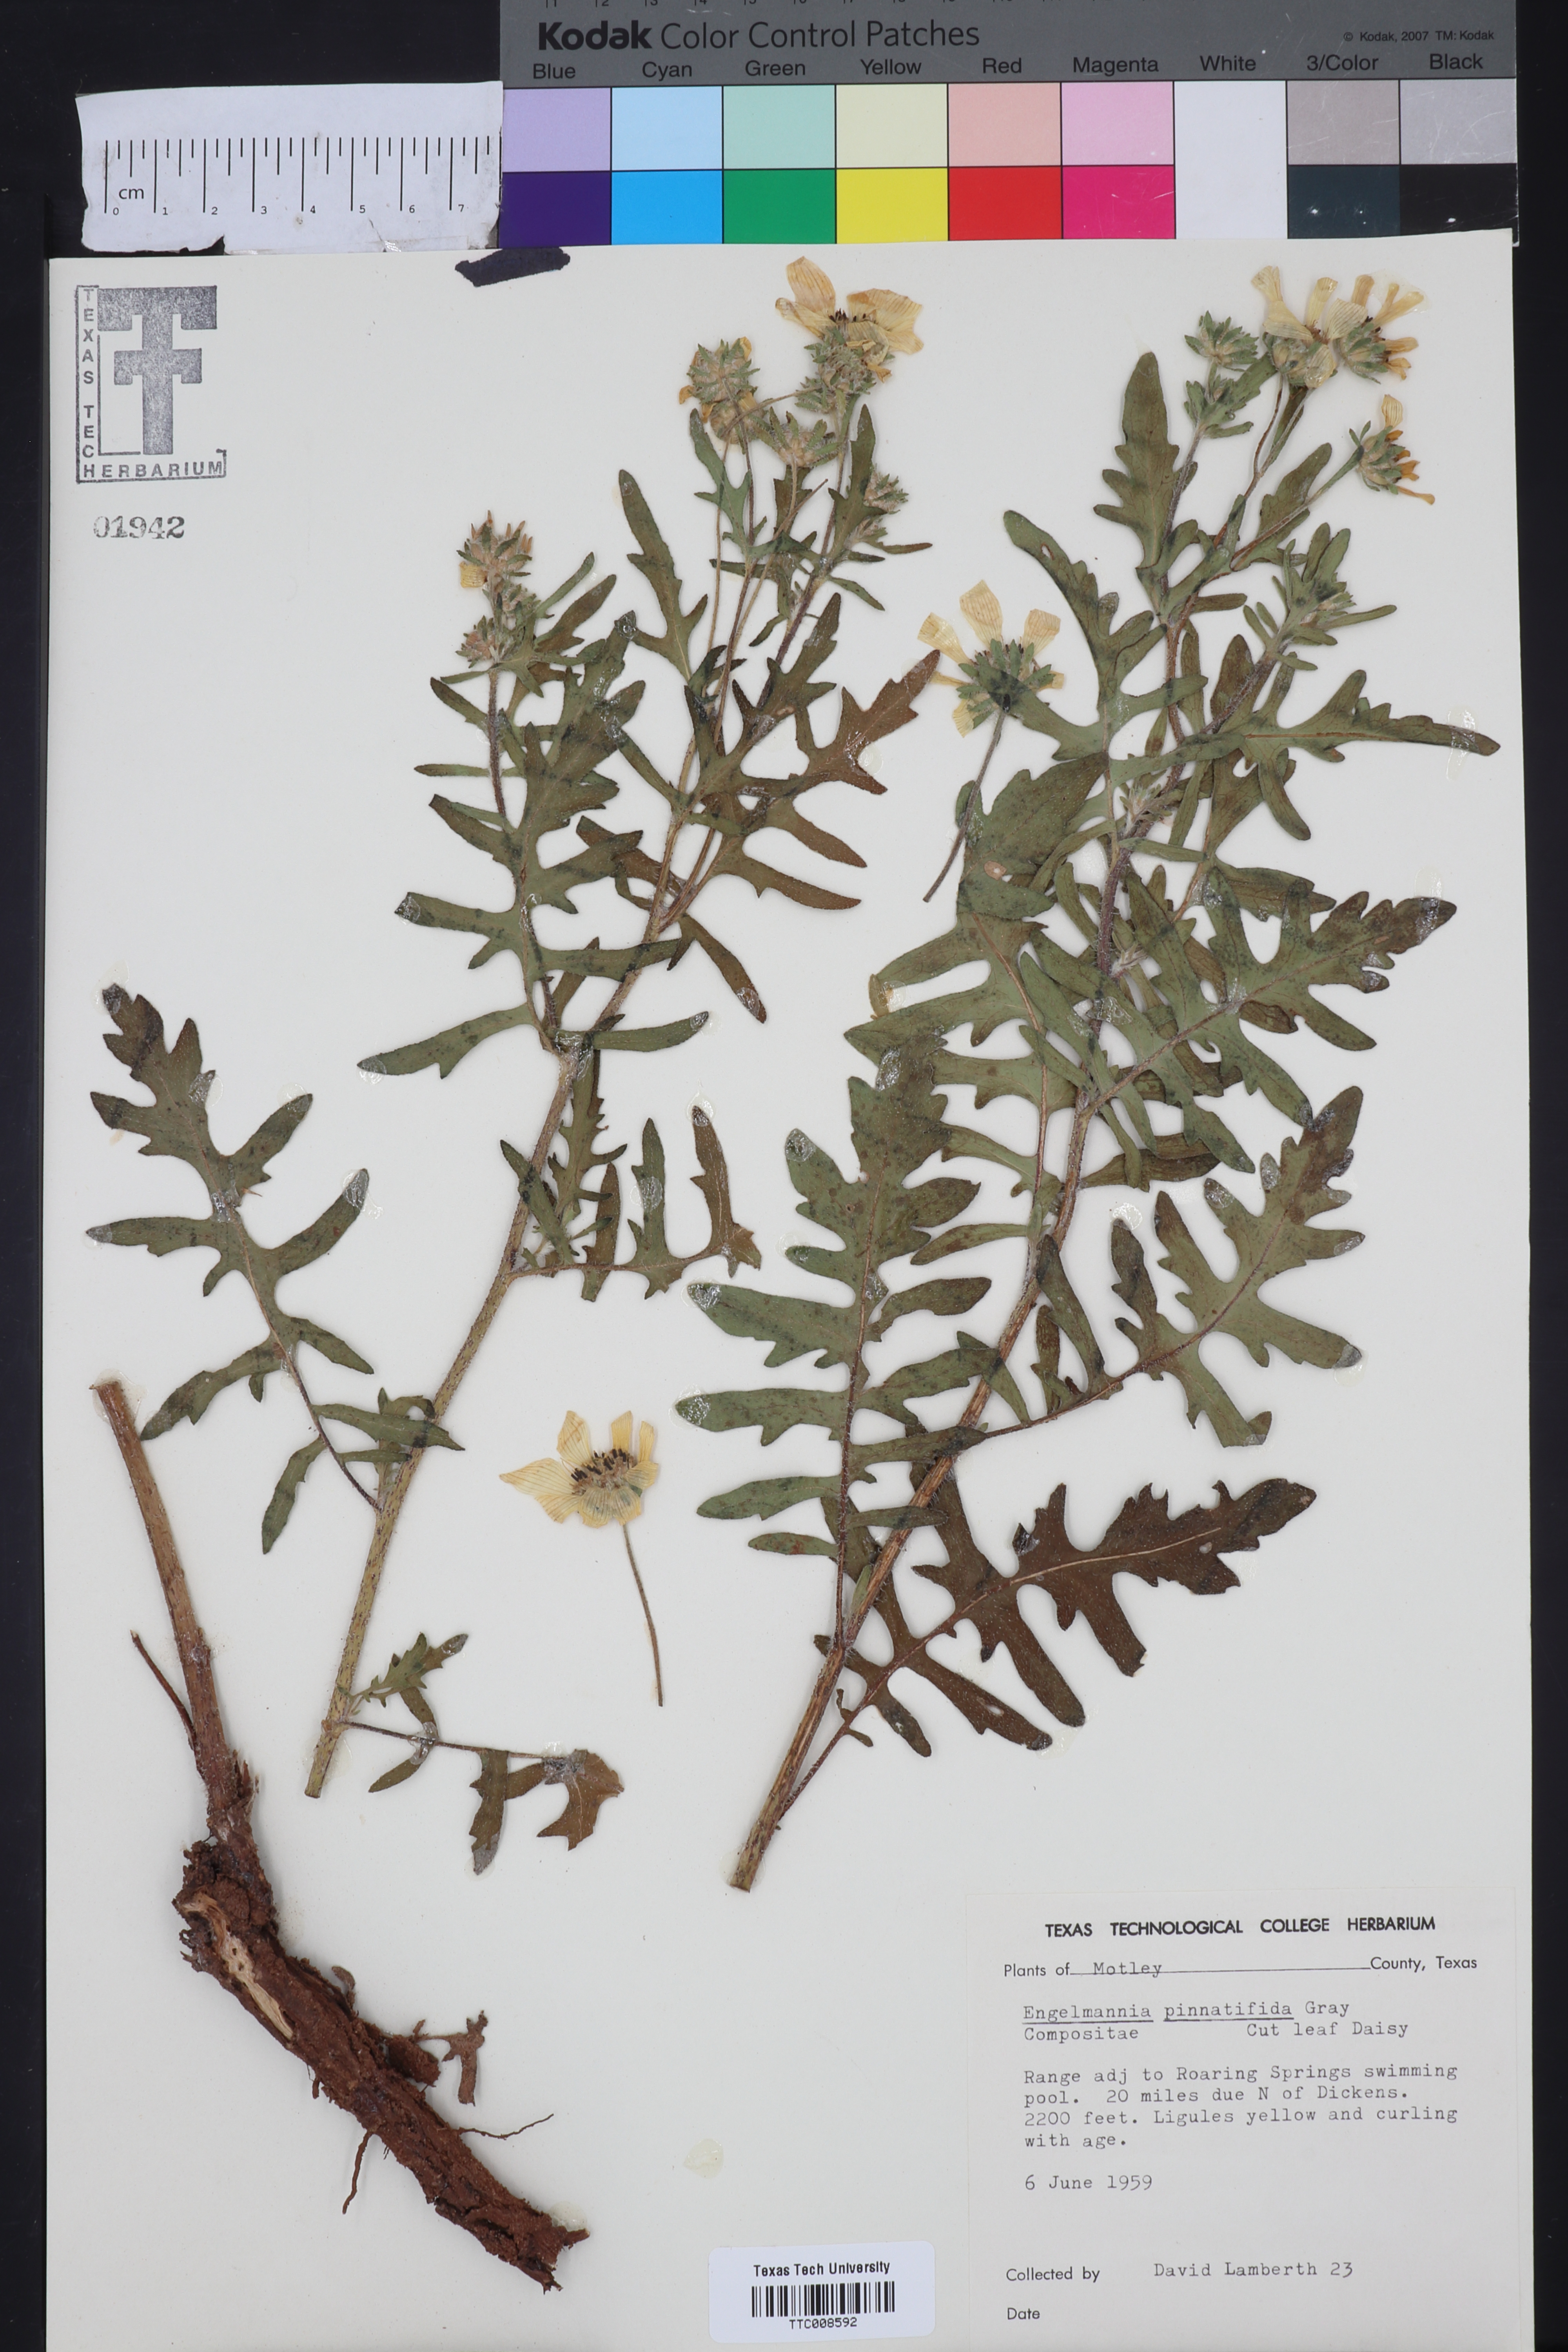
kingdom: Plantae
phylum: Tracheophyta
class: Magnoliopsida
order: Asterales
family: Asteraceae
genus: Engelmannia
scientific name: Engelmannia peristenia
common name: Engelmann's daisy
